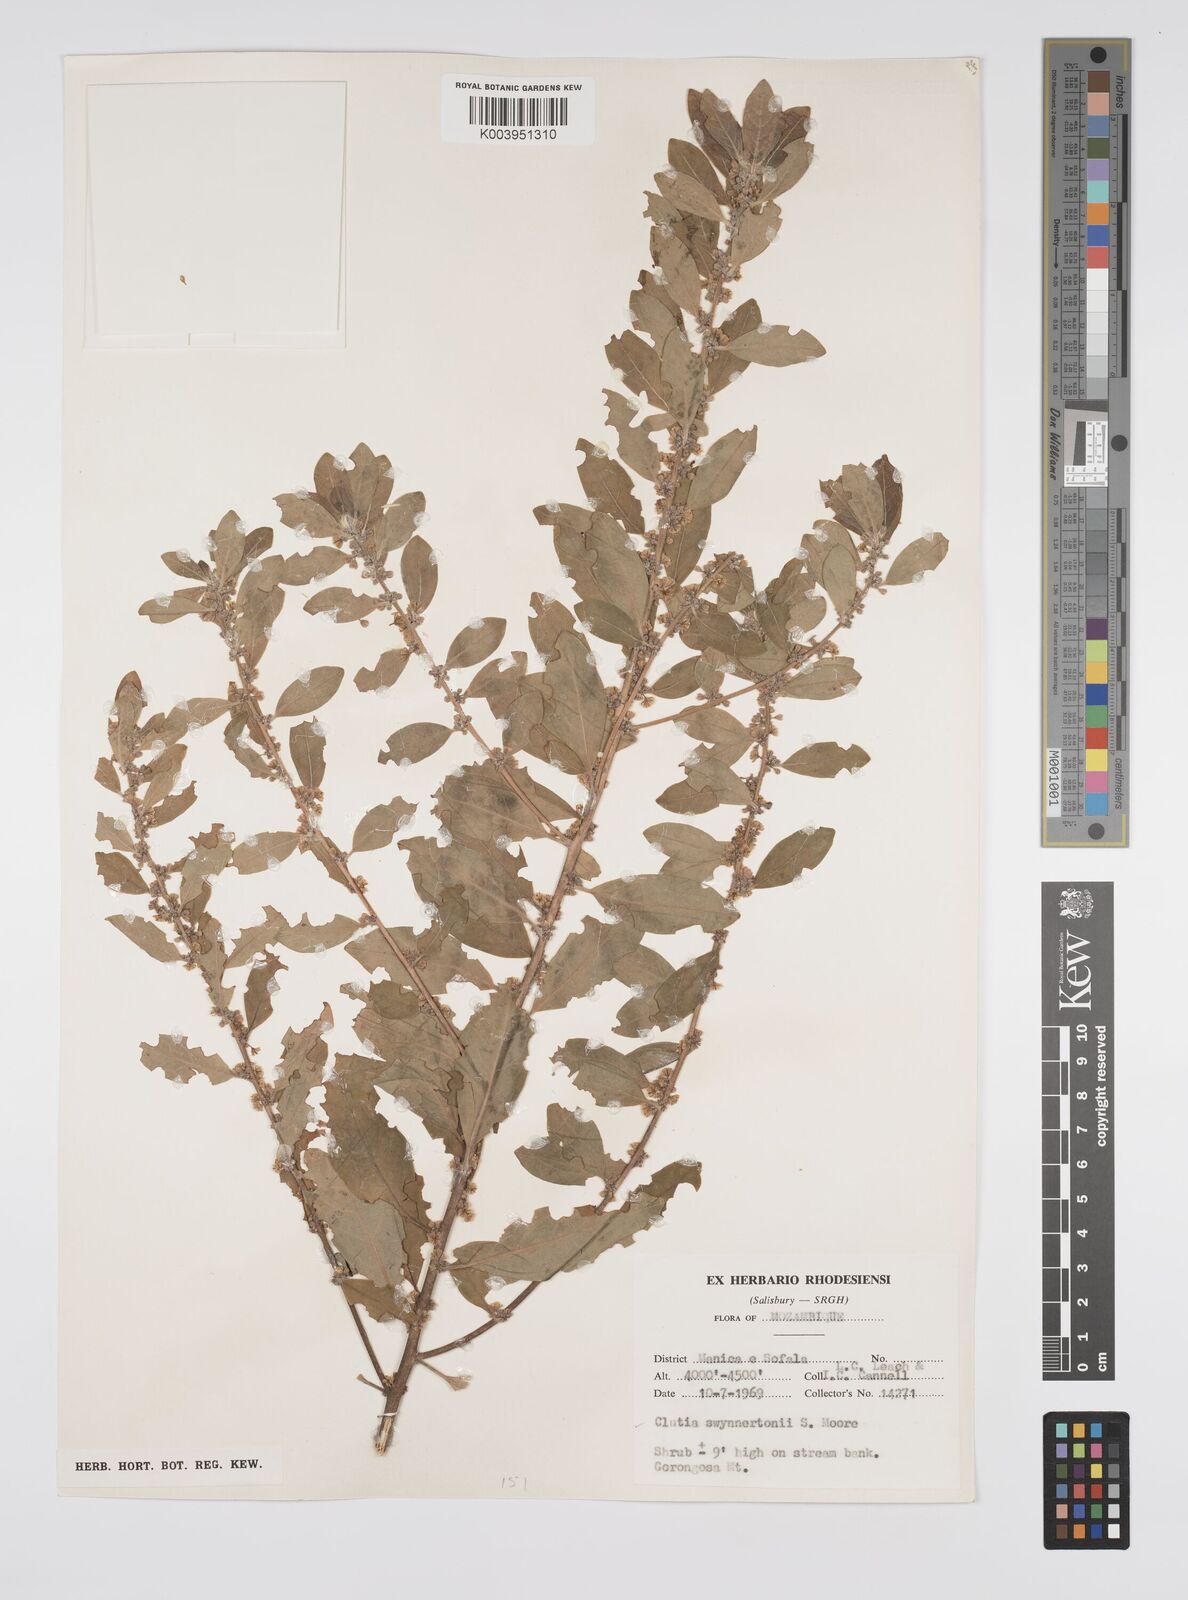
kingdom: Plantae
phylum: Tracheophyta
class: Magnoliopsida
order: Malpighiales
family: Peraceae
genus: Clutia
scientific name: Clutia swynnertonii
